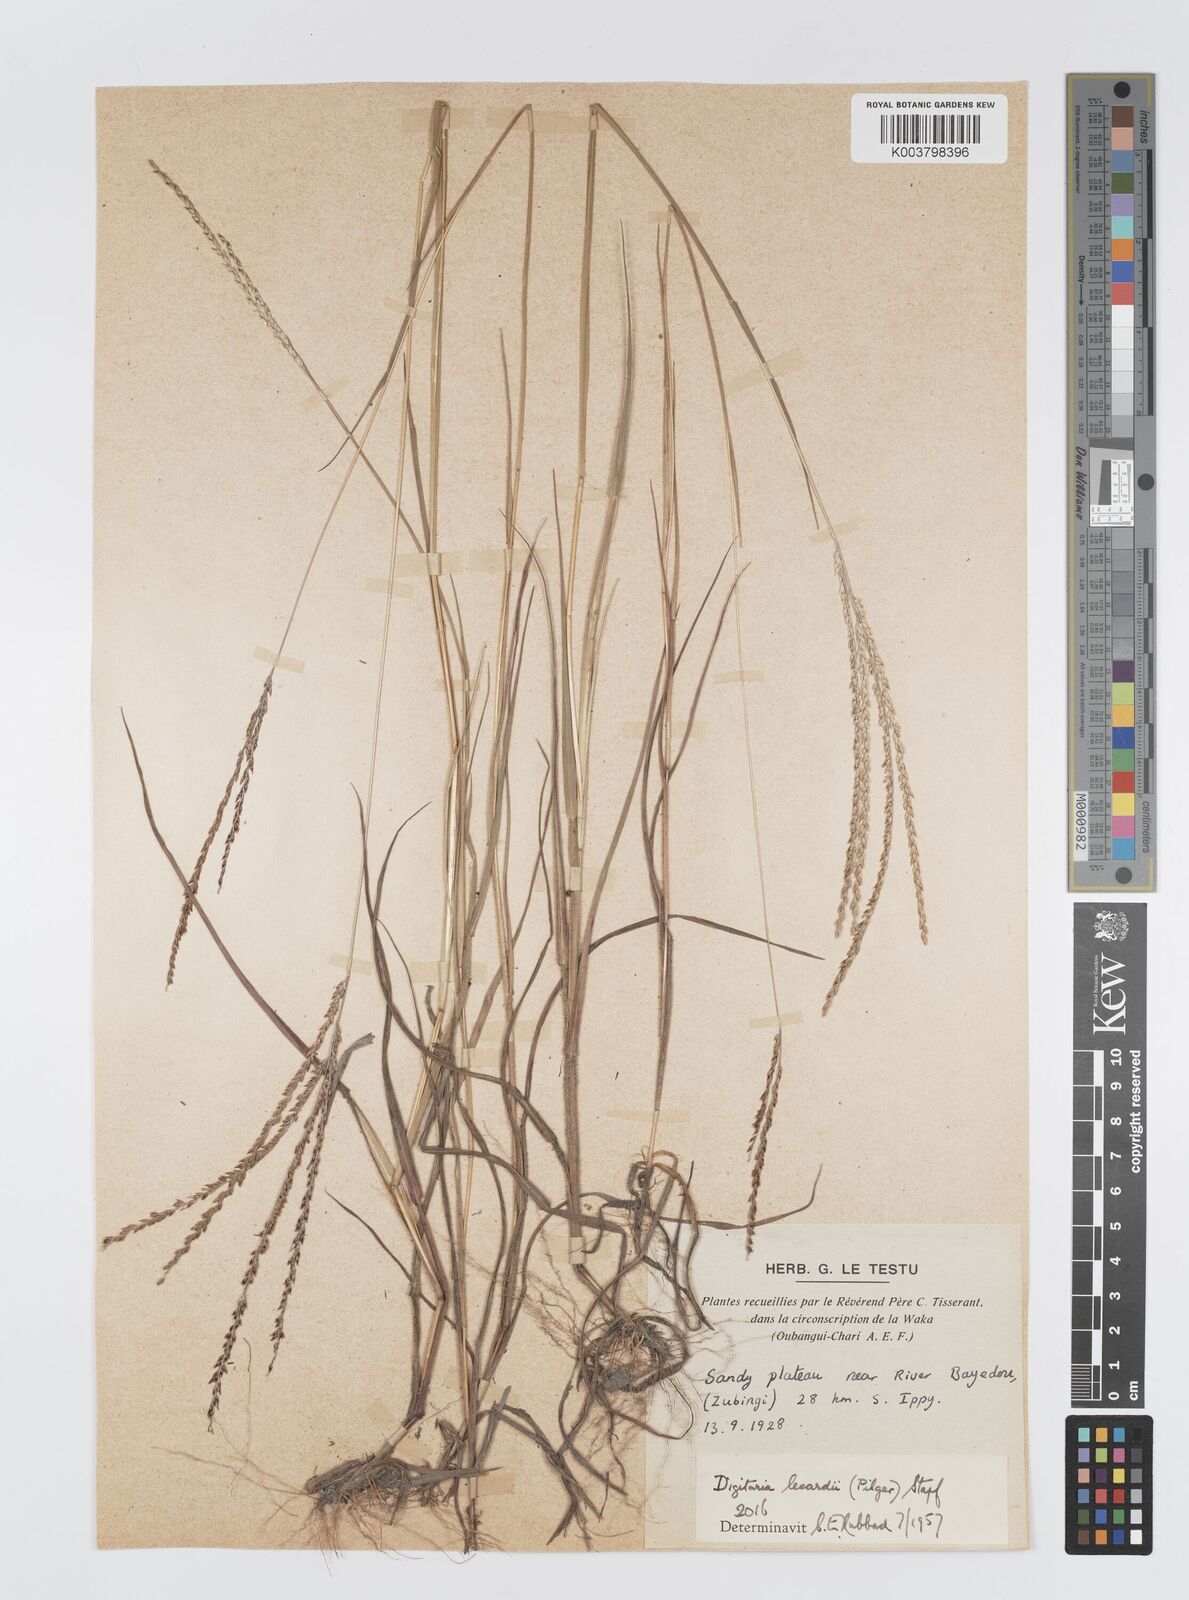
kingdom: Plantae
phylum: Tracheophyta
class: Liliopsida
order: Poales
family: Poaceae
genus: Digitaria
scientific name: Digitaria argillacea
